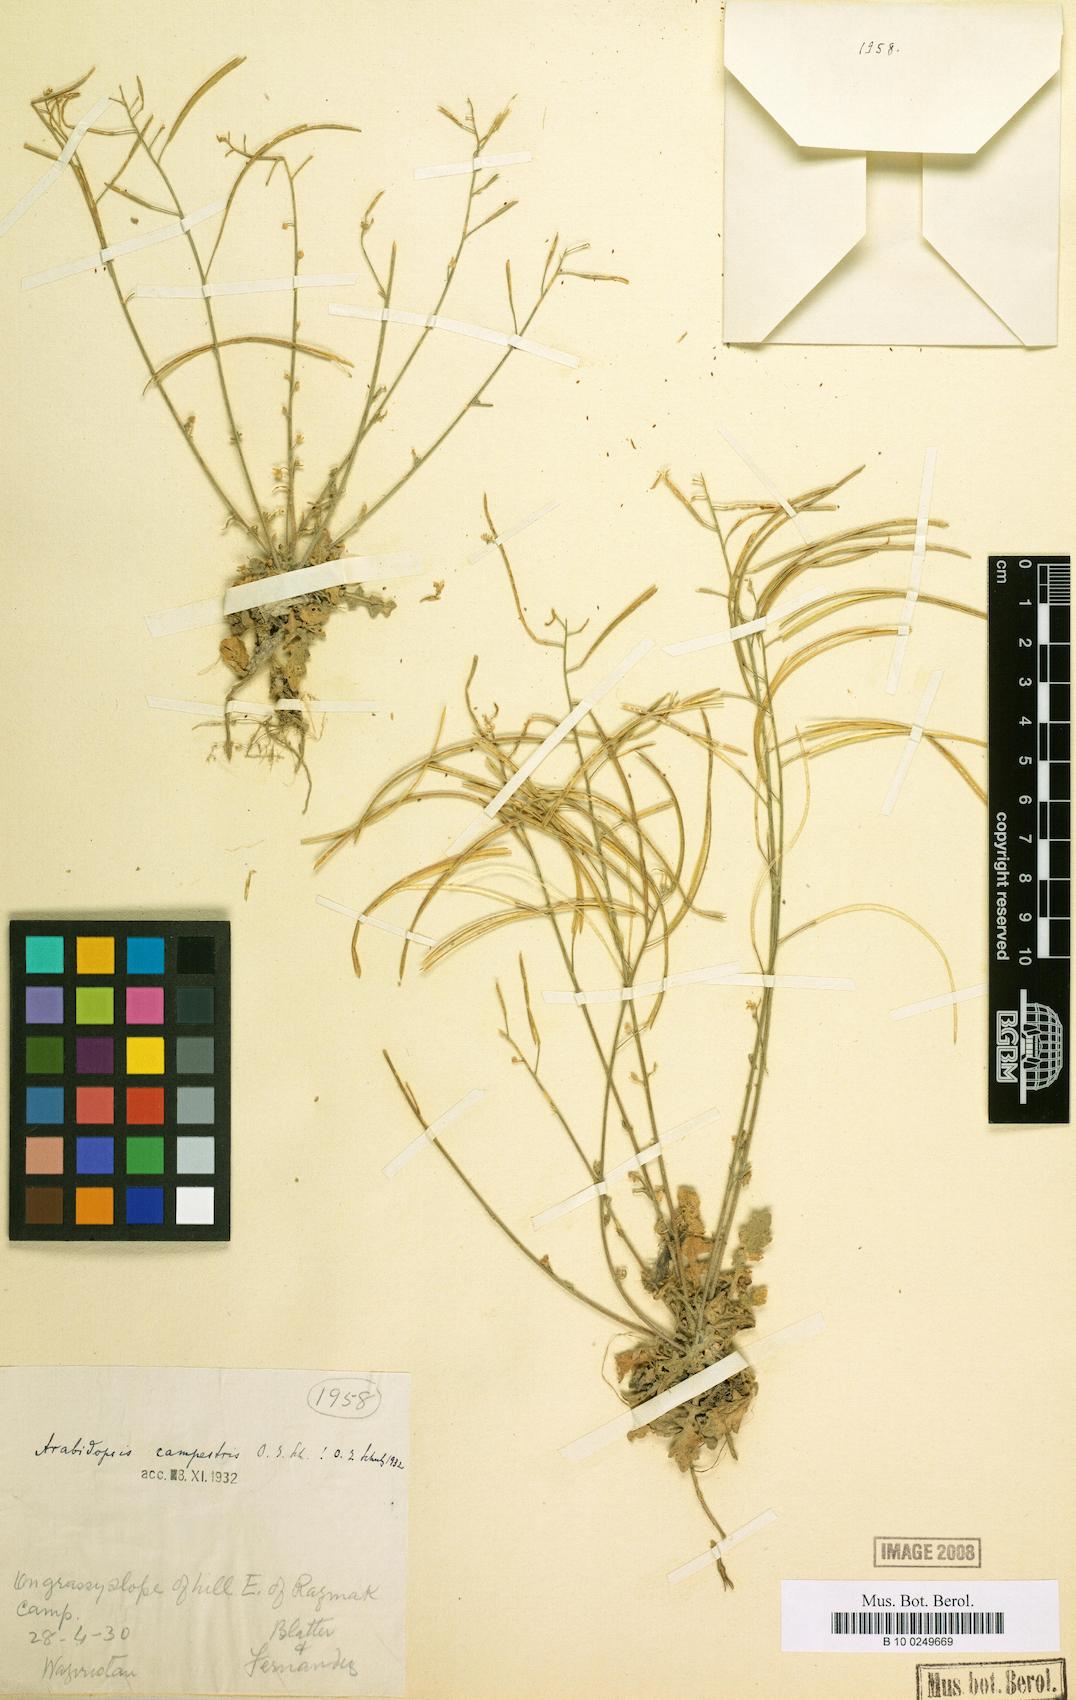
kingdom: Plantae
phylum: Tracheophyta
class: Magnoliopsida
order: Brassicales
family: Brassicaceae
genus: Crucihimalaya
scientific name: Crucihimalaya wallichii
